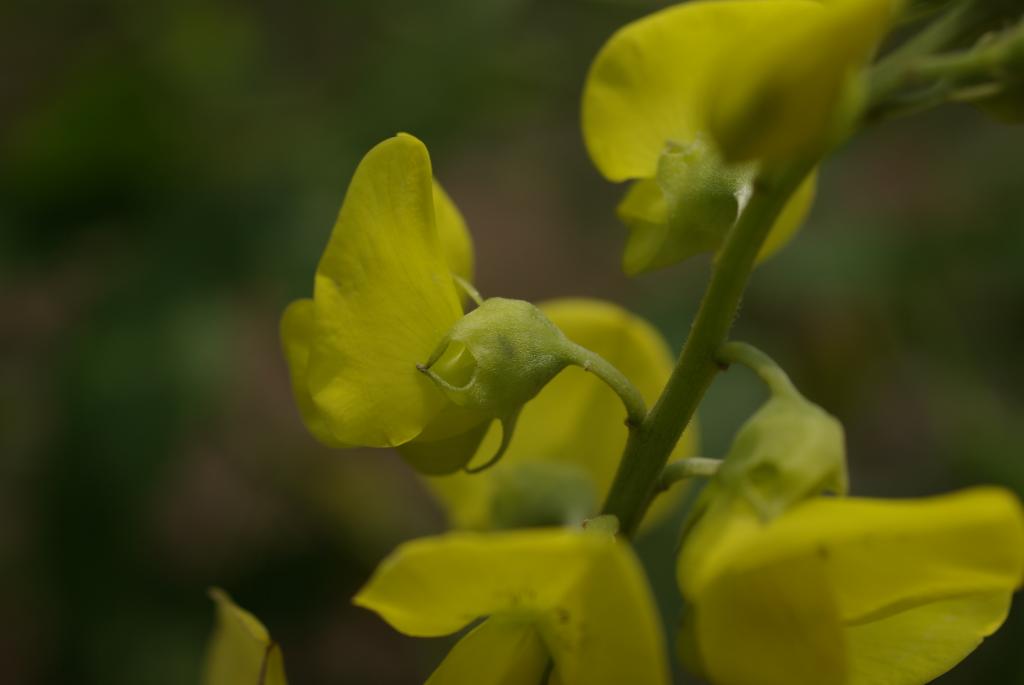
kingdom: Plantae
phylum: Tracheophyta
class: Magnoliopsida
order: Fabales
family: Fabaceae
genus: Crotalaria
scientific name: Crotalaria micans
